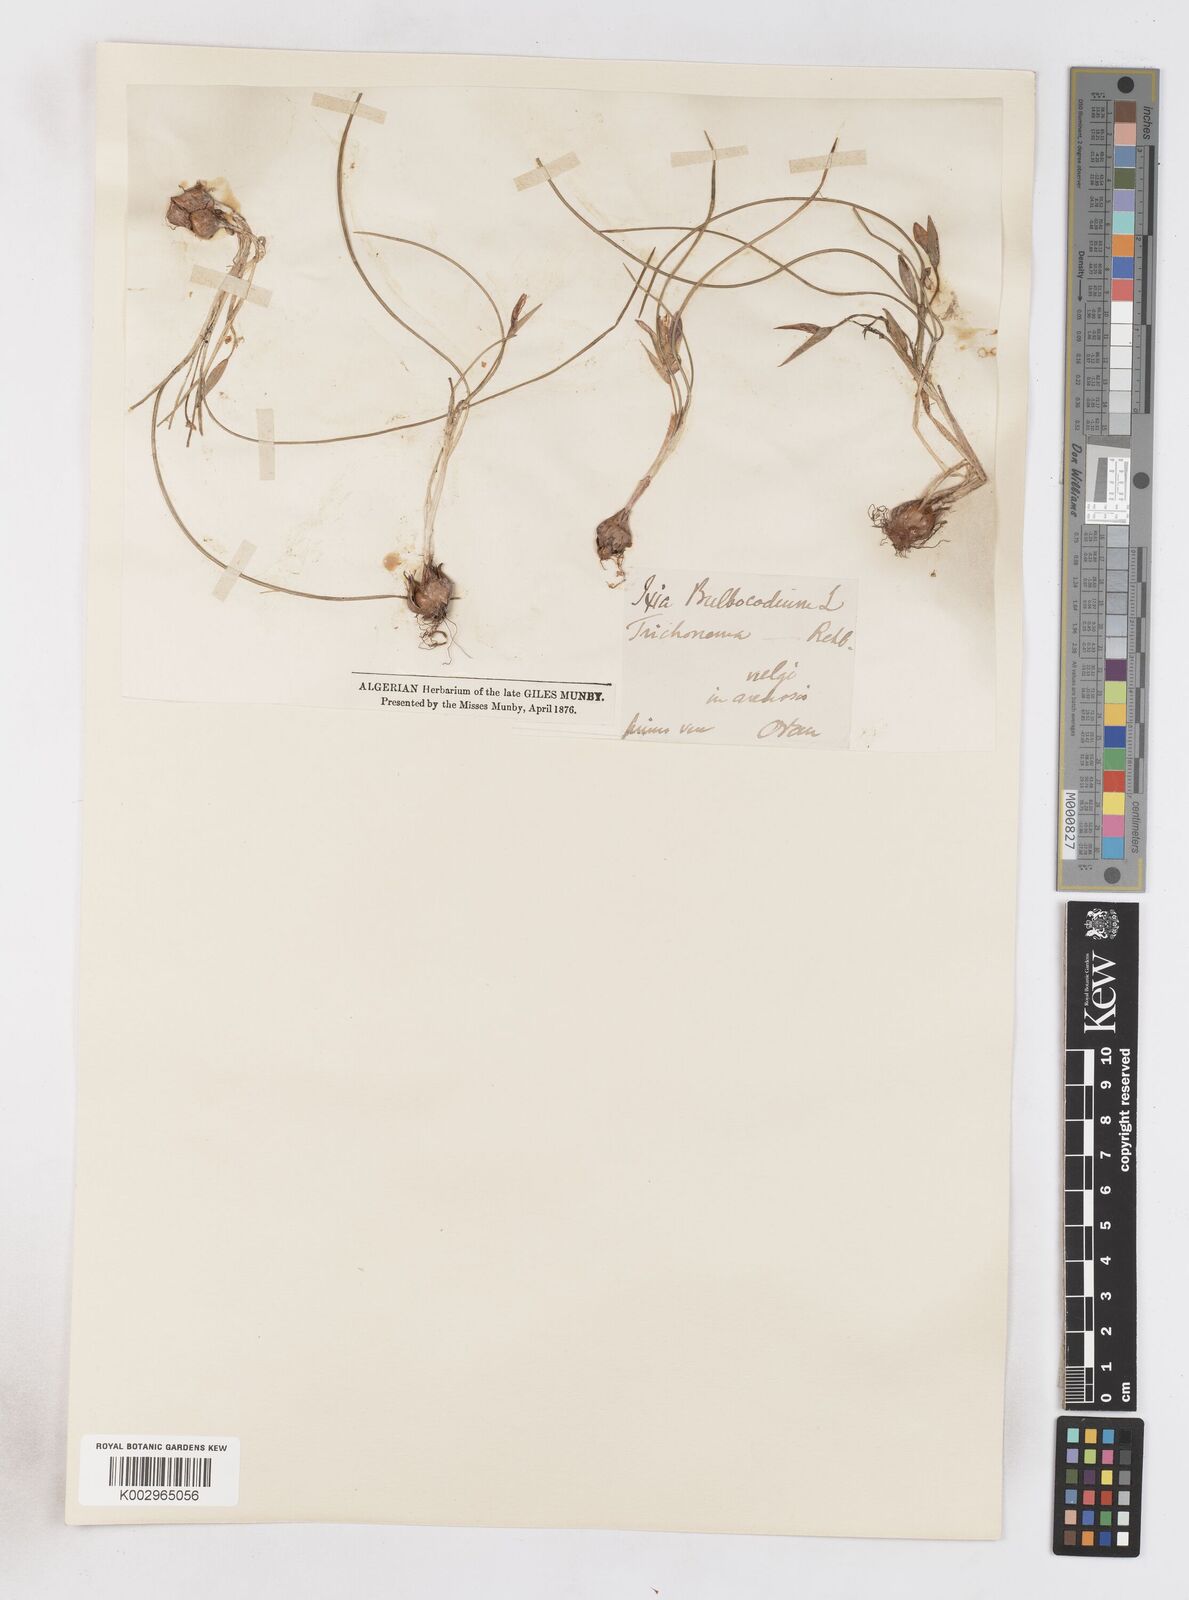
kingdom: Plantae
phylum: Tracheophyta
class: Liliopsida
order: Asparagales
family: Iridaceae
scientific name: Iridaceae
